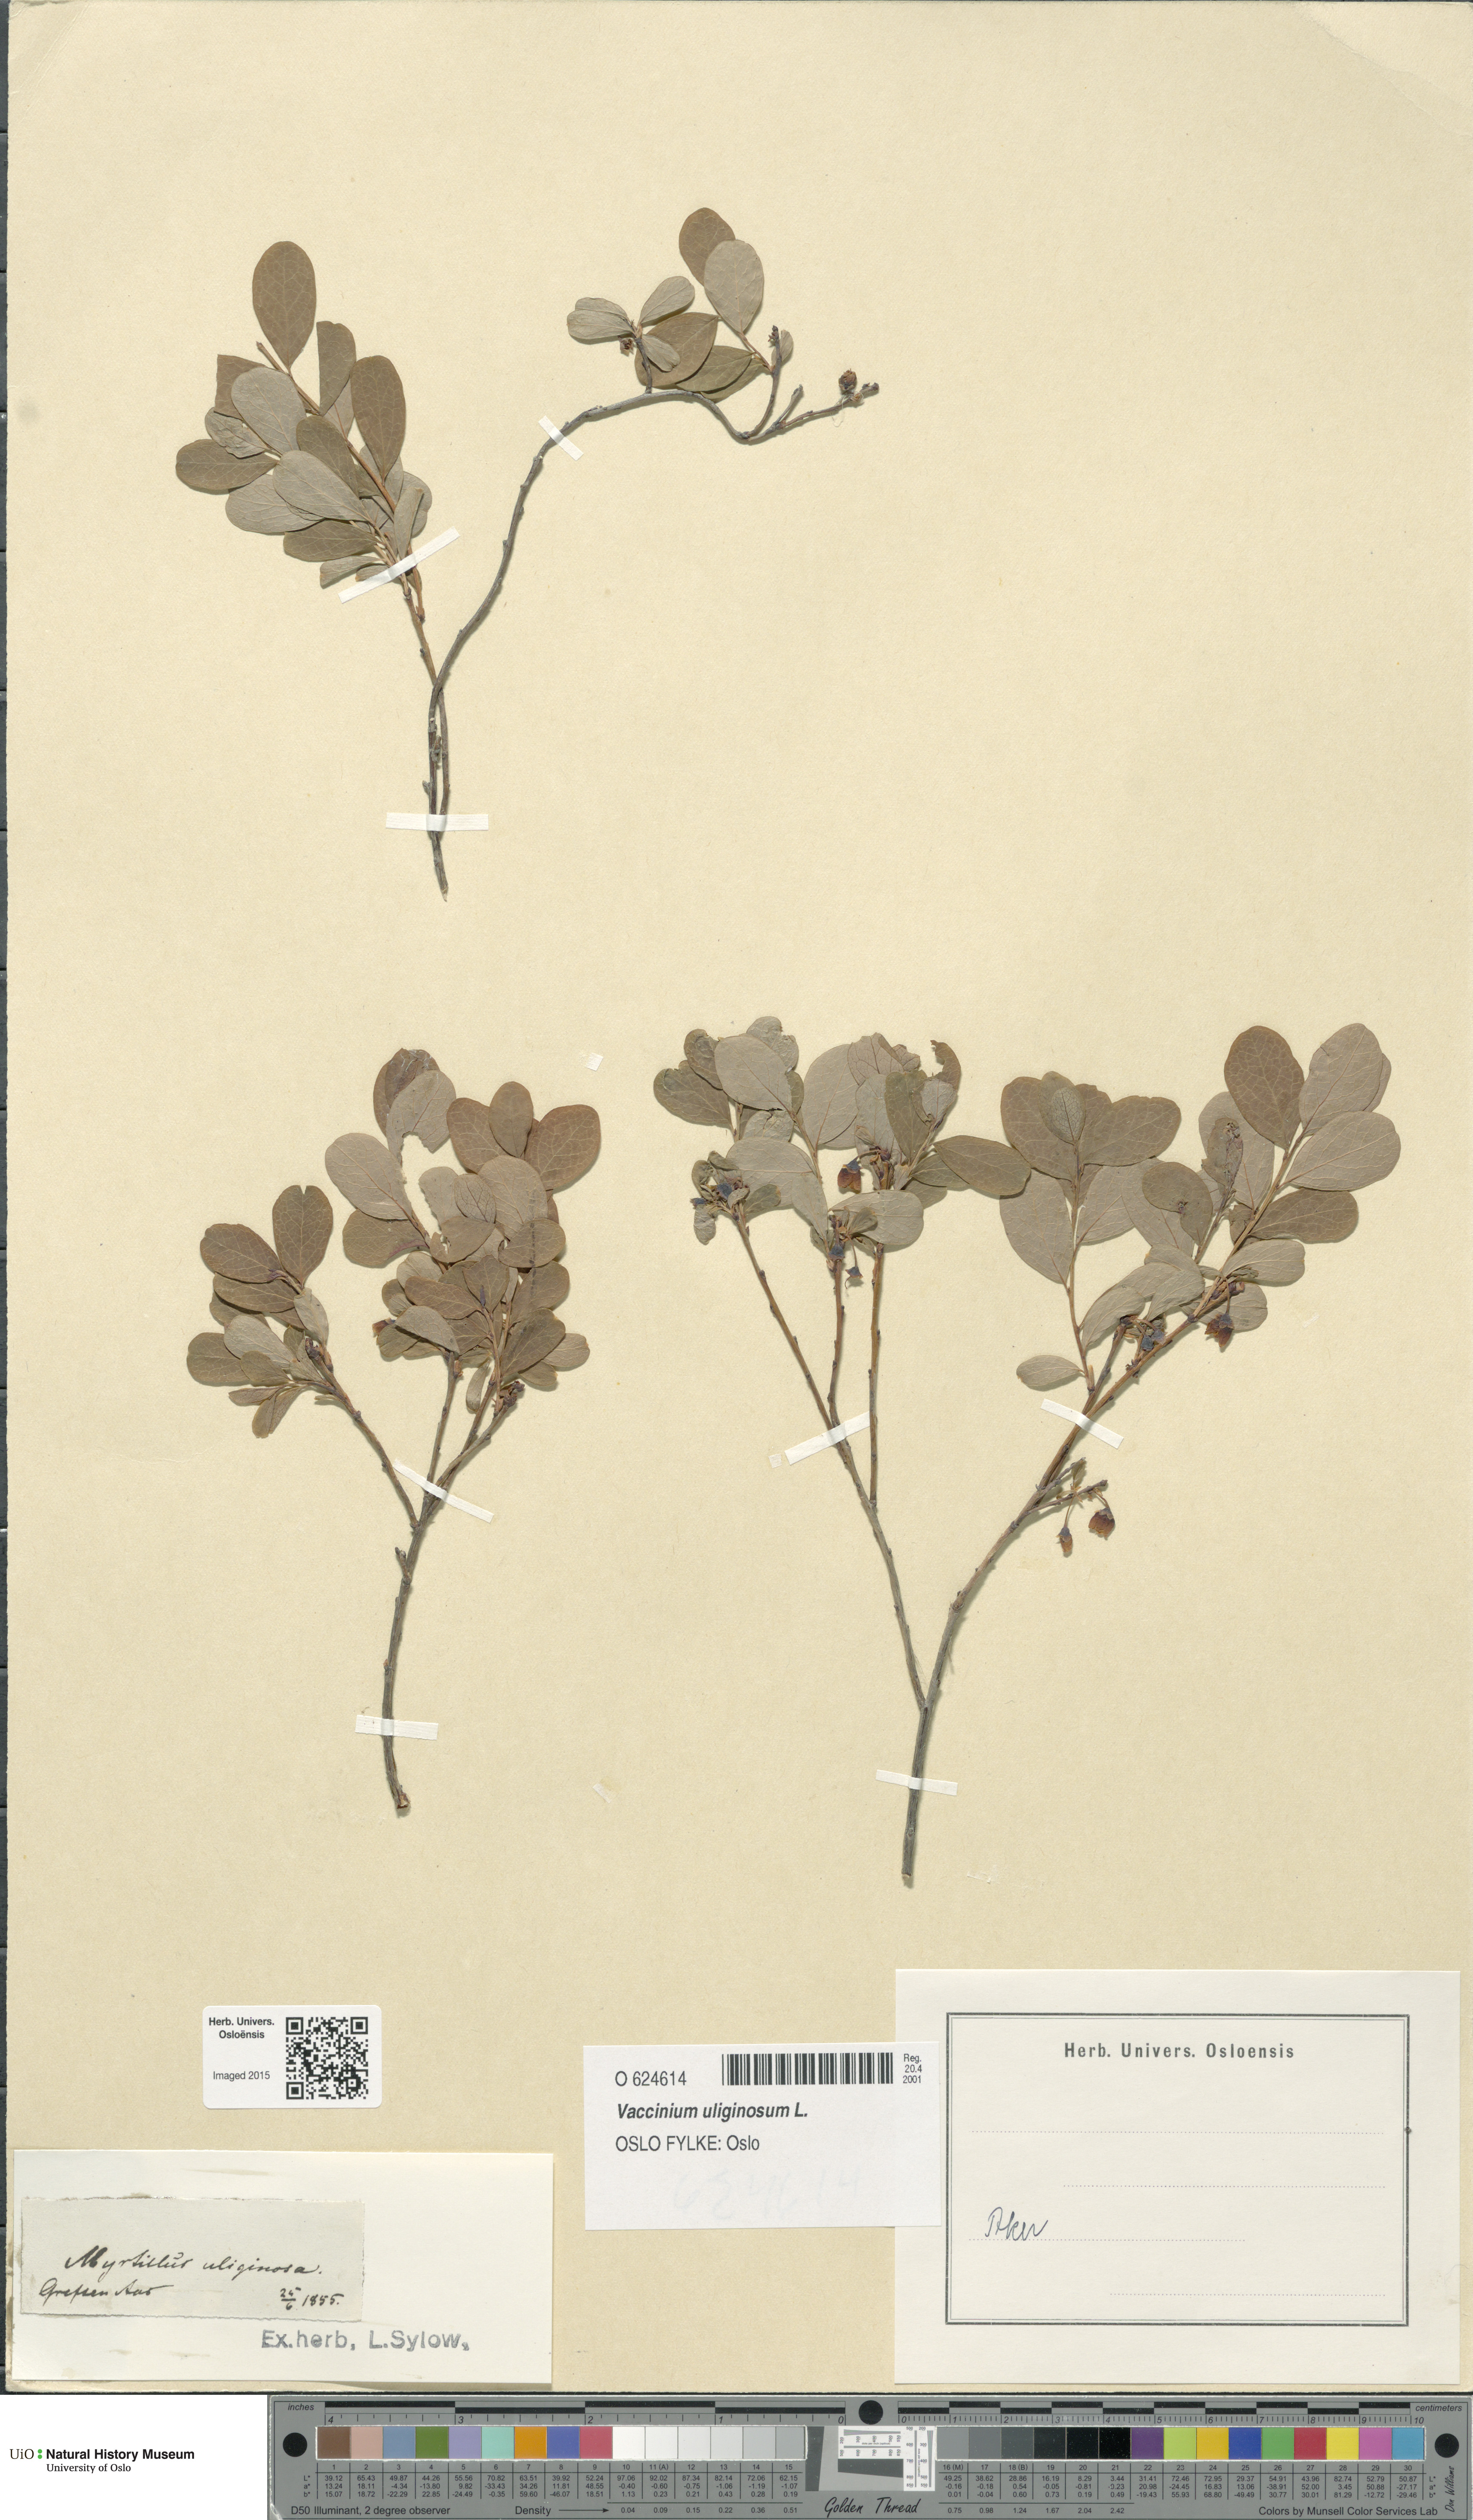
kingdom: Plantae
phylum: Tracheophyta
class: Magnoliopsida
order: Ericales
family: Ericaceae
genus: Vaccinium
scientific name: Vaccinium uliginosum
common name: Bog bilberry
